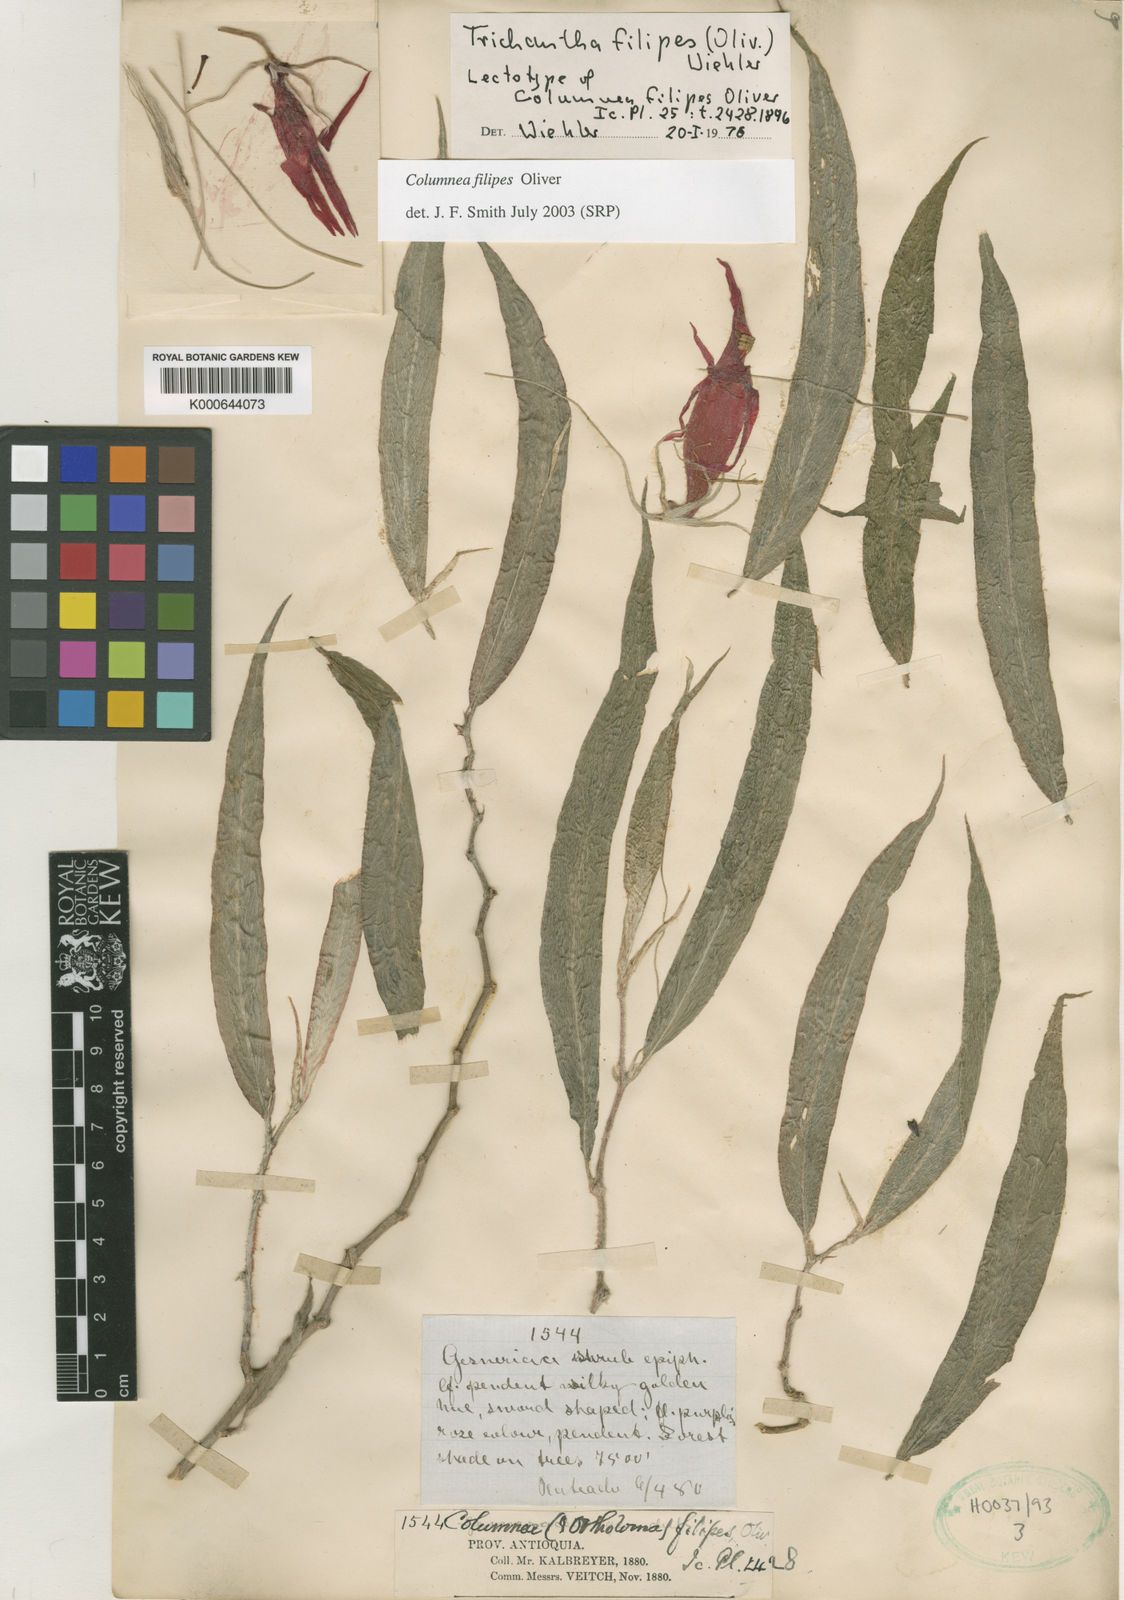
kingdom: Plantae
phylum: Tracheophyta
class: Magnoliopsida
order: Lamiales
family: Gesneriaceae
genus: Columnea
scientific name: Columnea filipes
